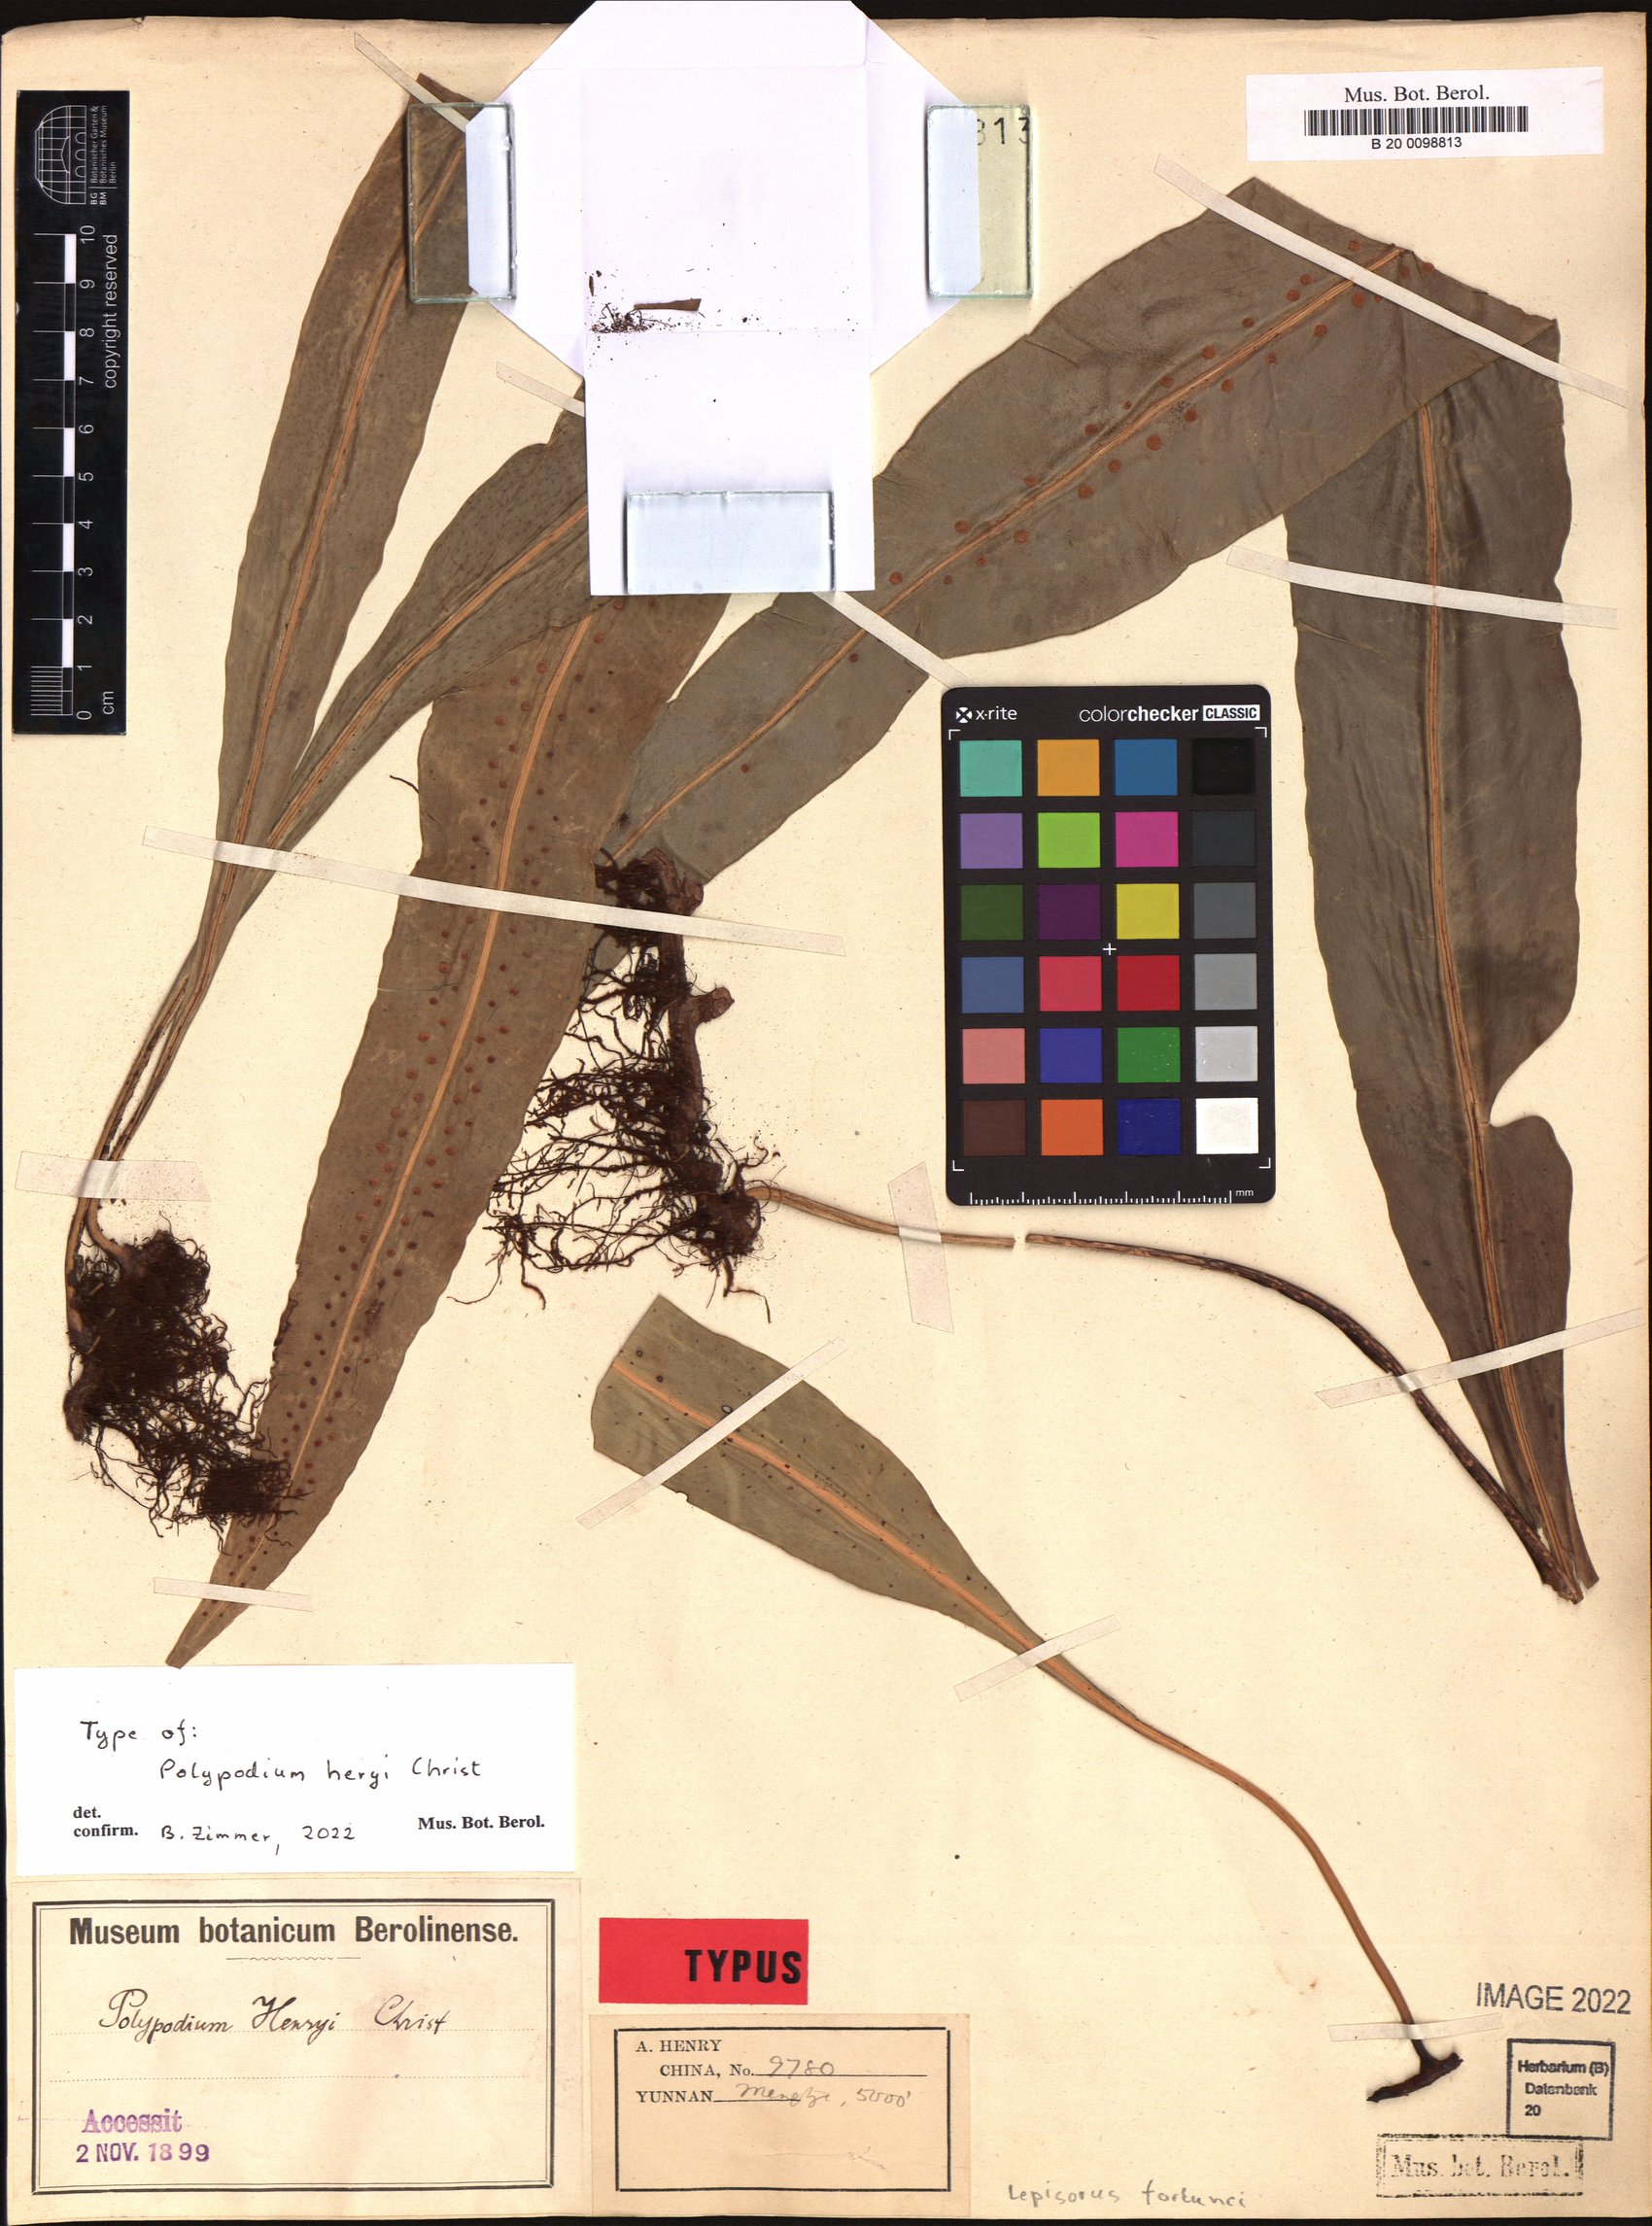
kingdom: Plantae
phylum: Tracheophyta
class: Polypodiopsida
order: Polypodiales
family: Polypodiaceae
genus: Lepisorus
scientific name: Lepisorus fortuni
